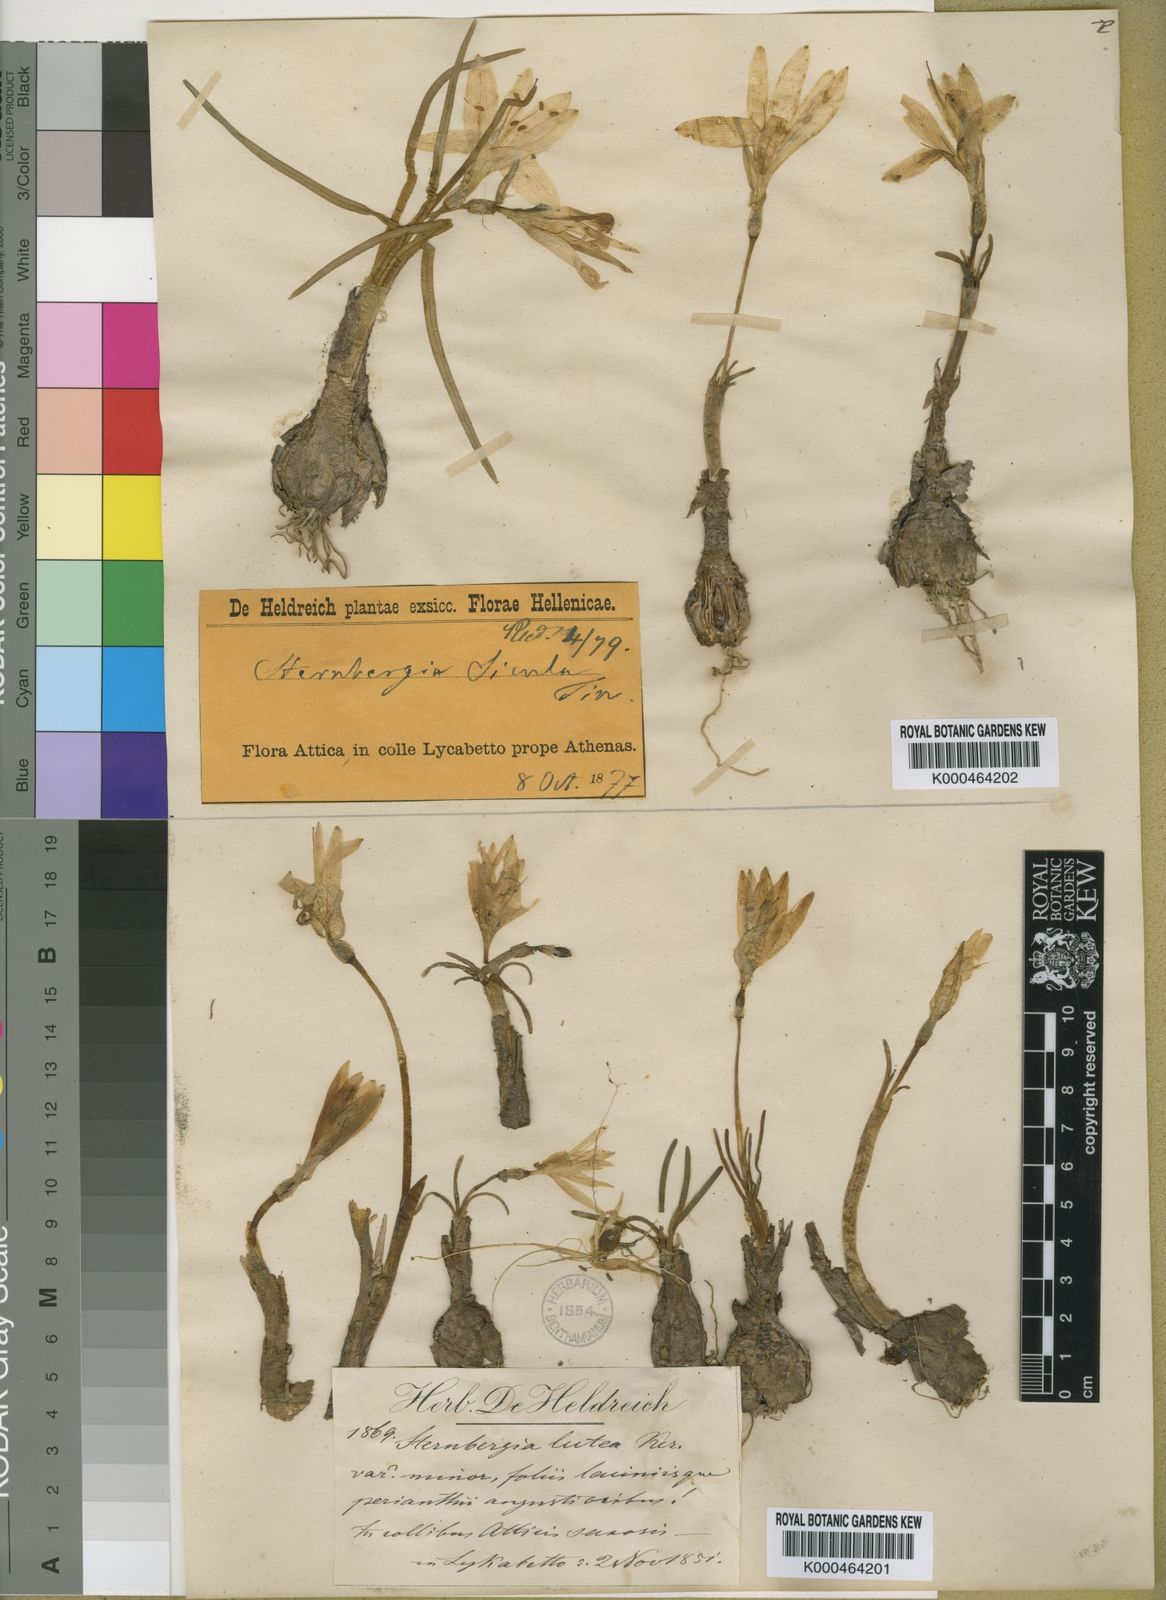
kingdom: Plantae
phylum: Tracheophyta
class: Liliopsida
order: Asparagales
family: Amaryllidaceae
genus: Sternbergia
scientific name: Sternbergia
